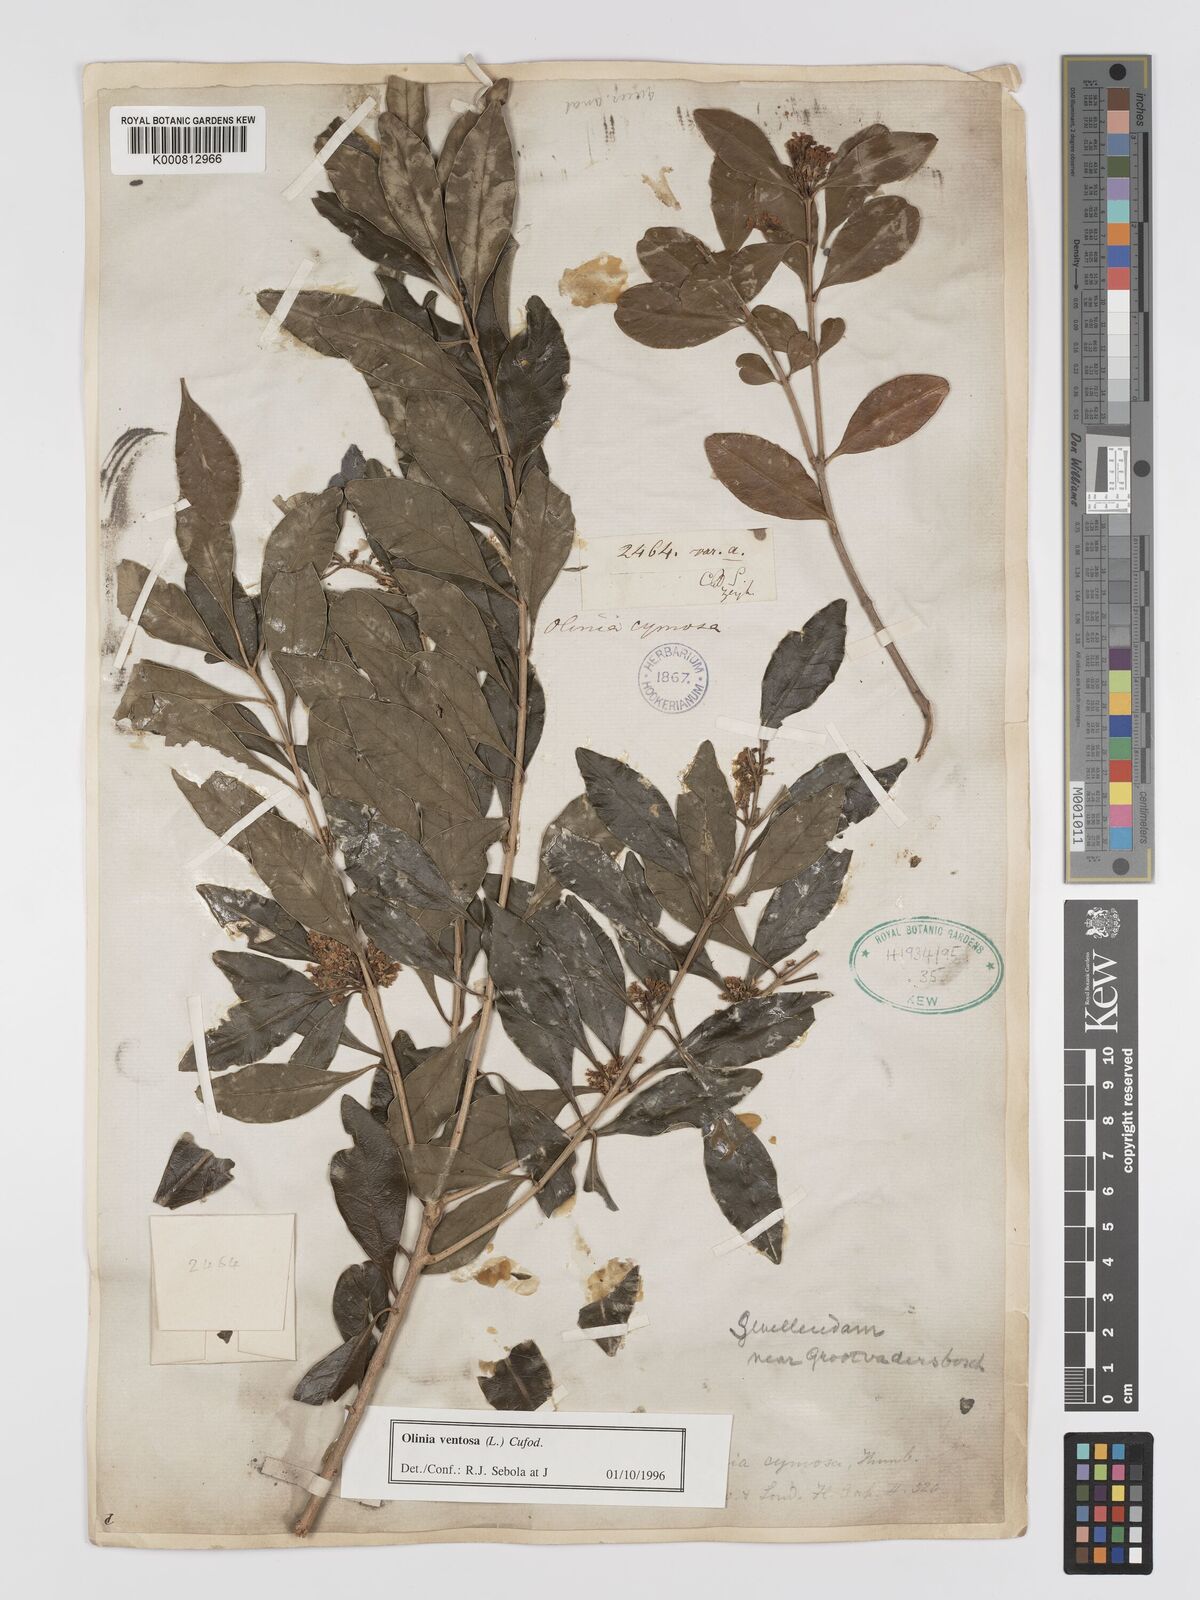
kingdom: Plantae
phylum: Tracheophyta
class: Magnoliopsida
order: Myrtales
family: Penaeaceae
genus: Olinia
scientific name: Olinia ventosa
